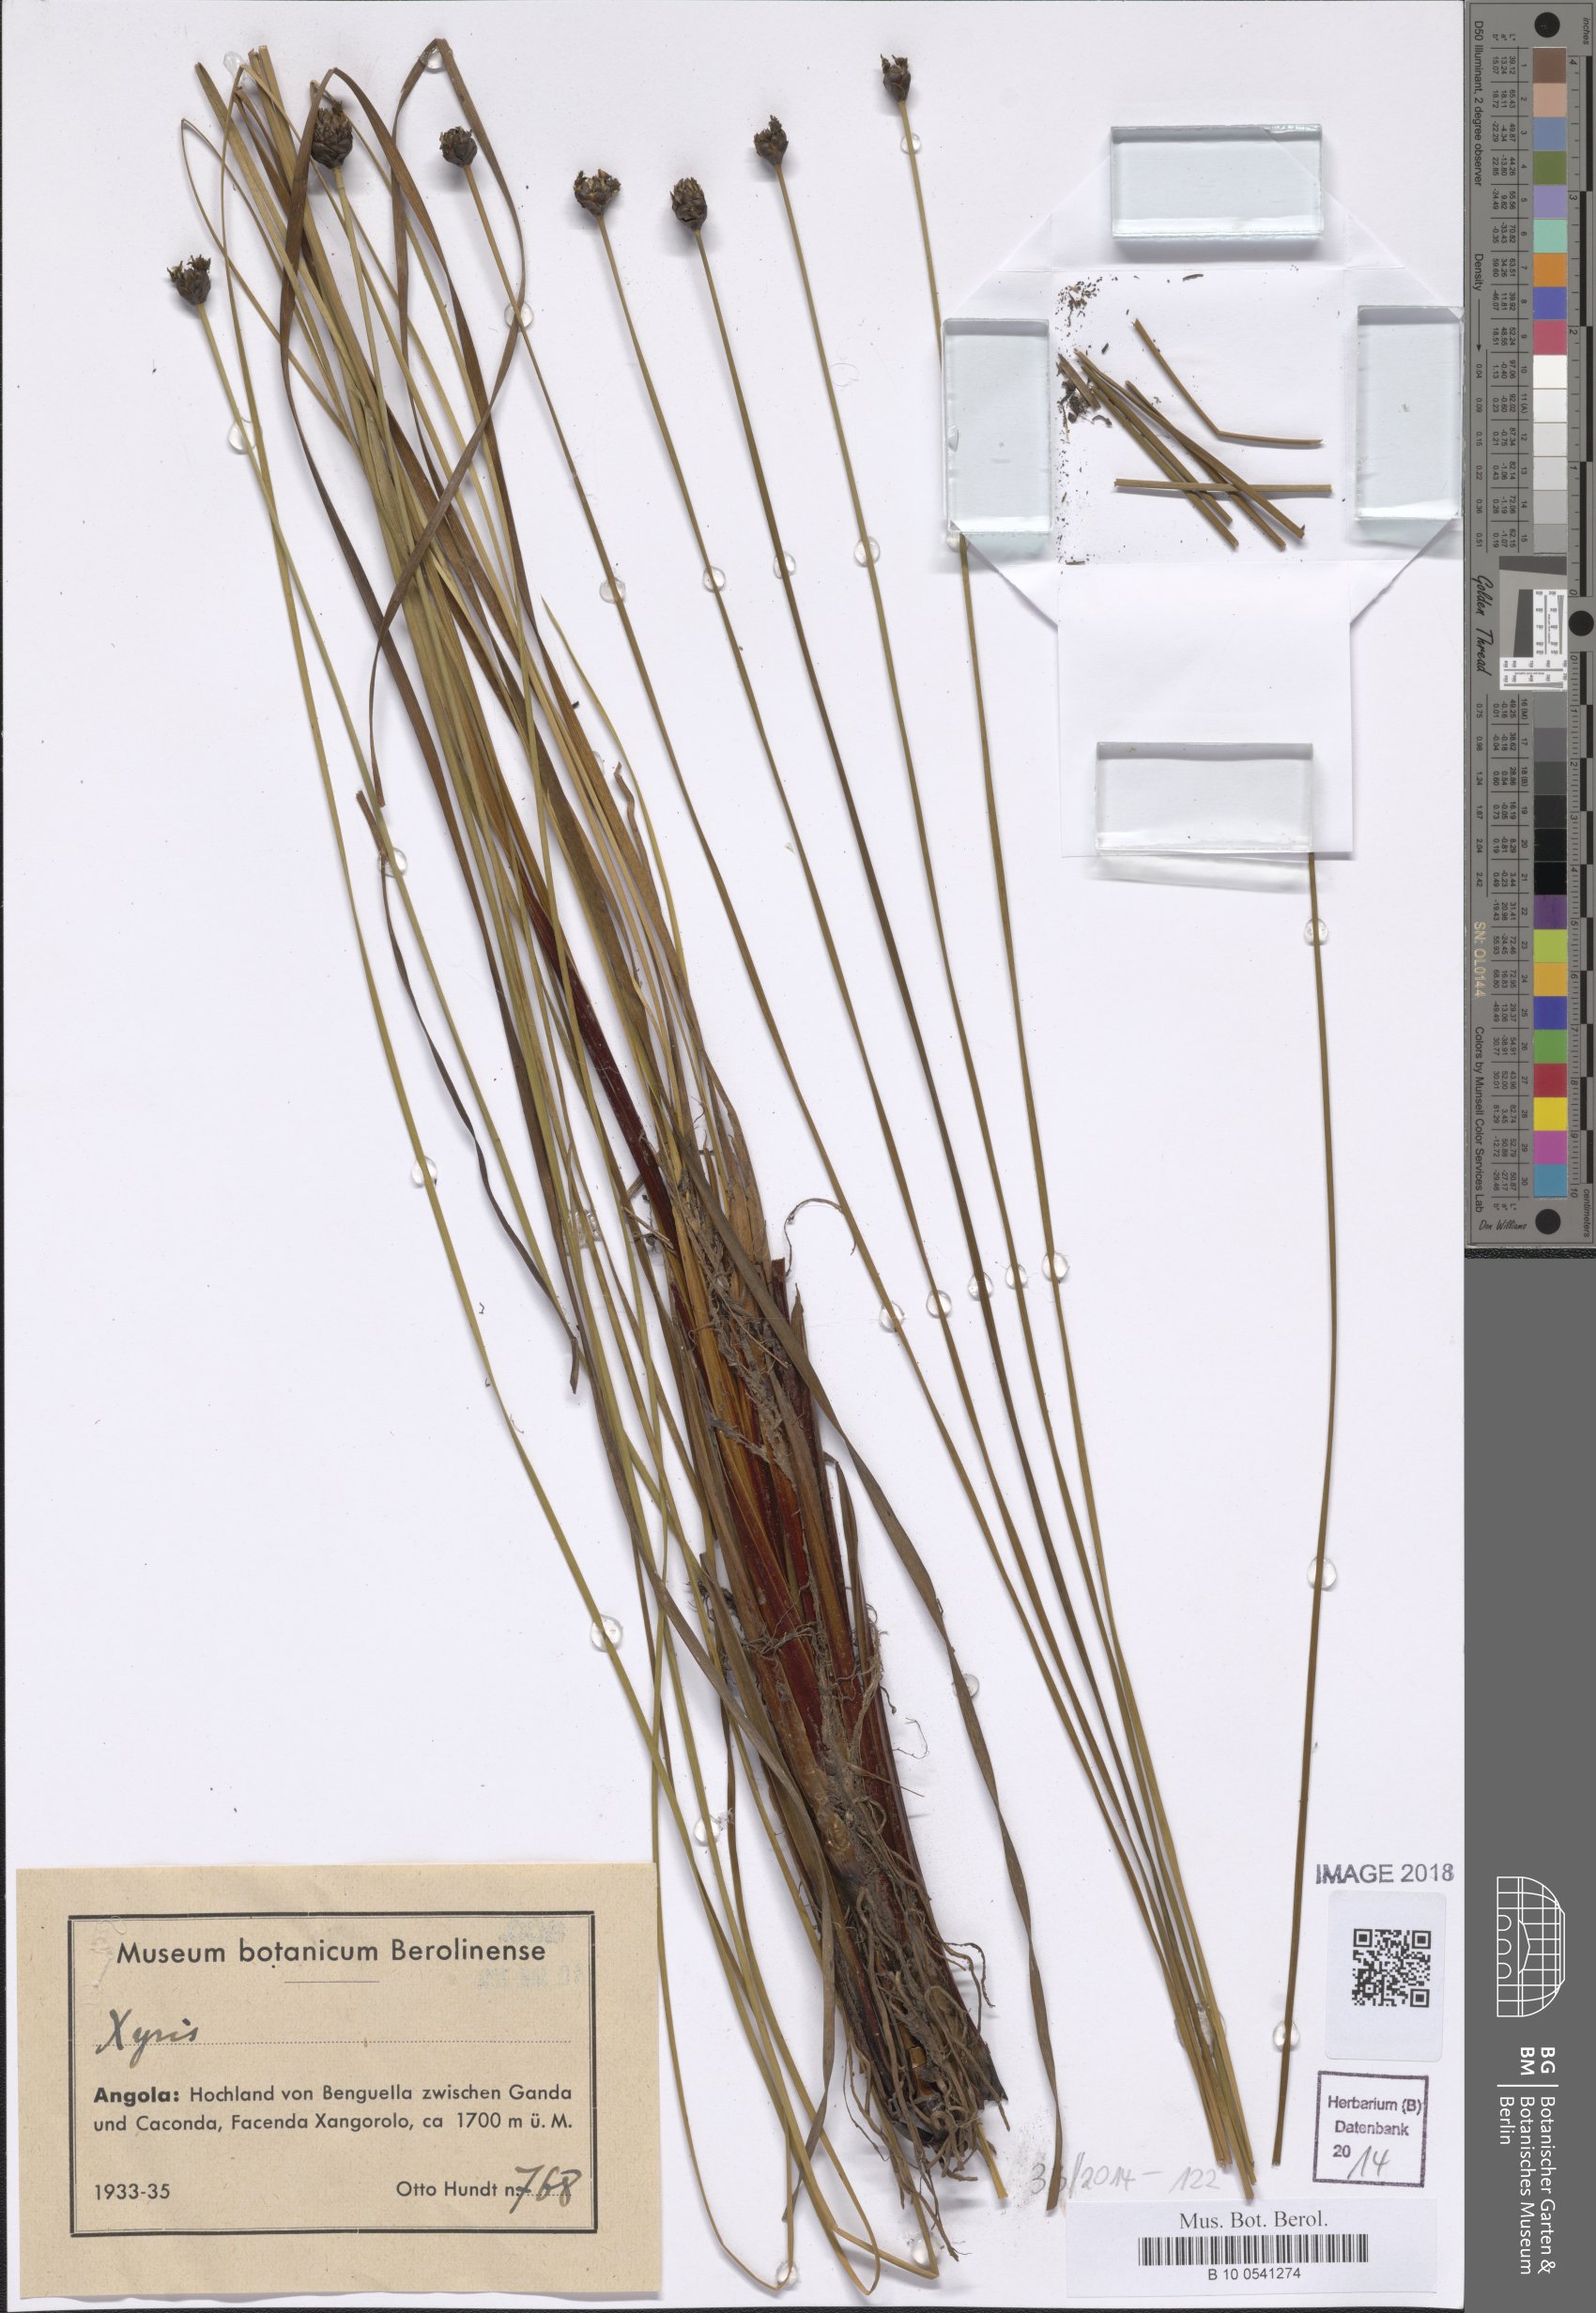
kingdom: Plantae
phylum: Tracheophyta
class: Liliopsida
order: Poales
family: Xyridaceae
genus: Xyris
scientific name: Xyris
